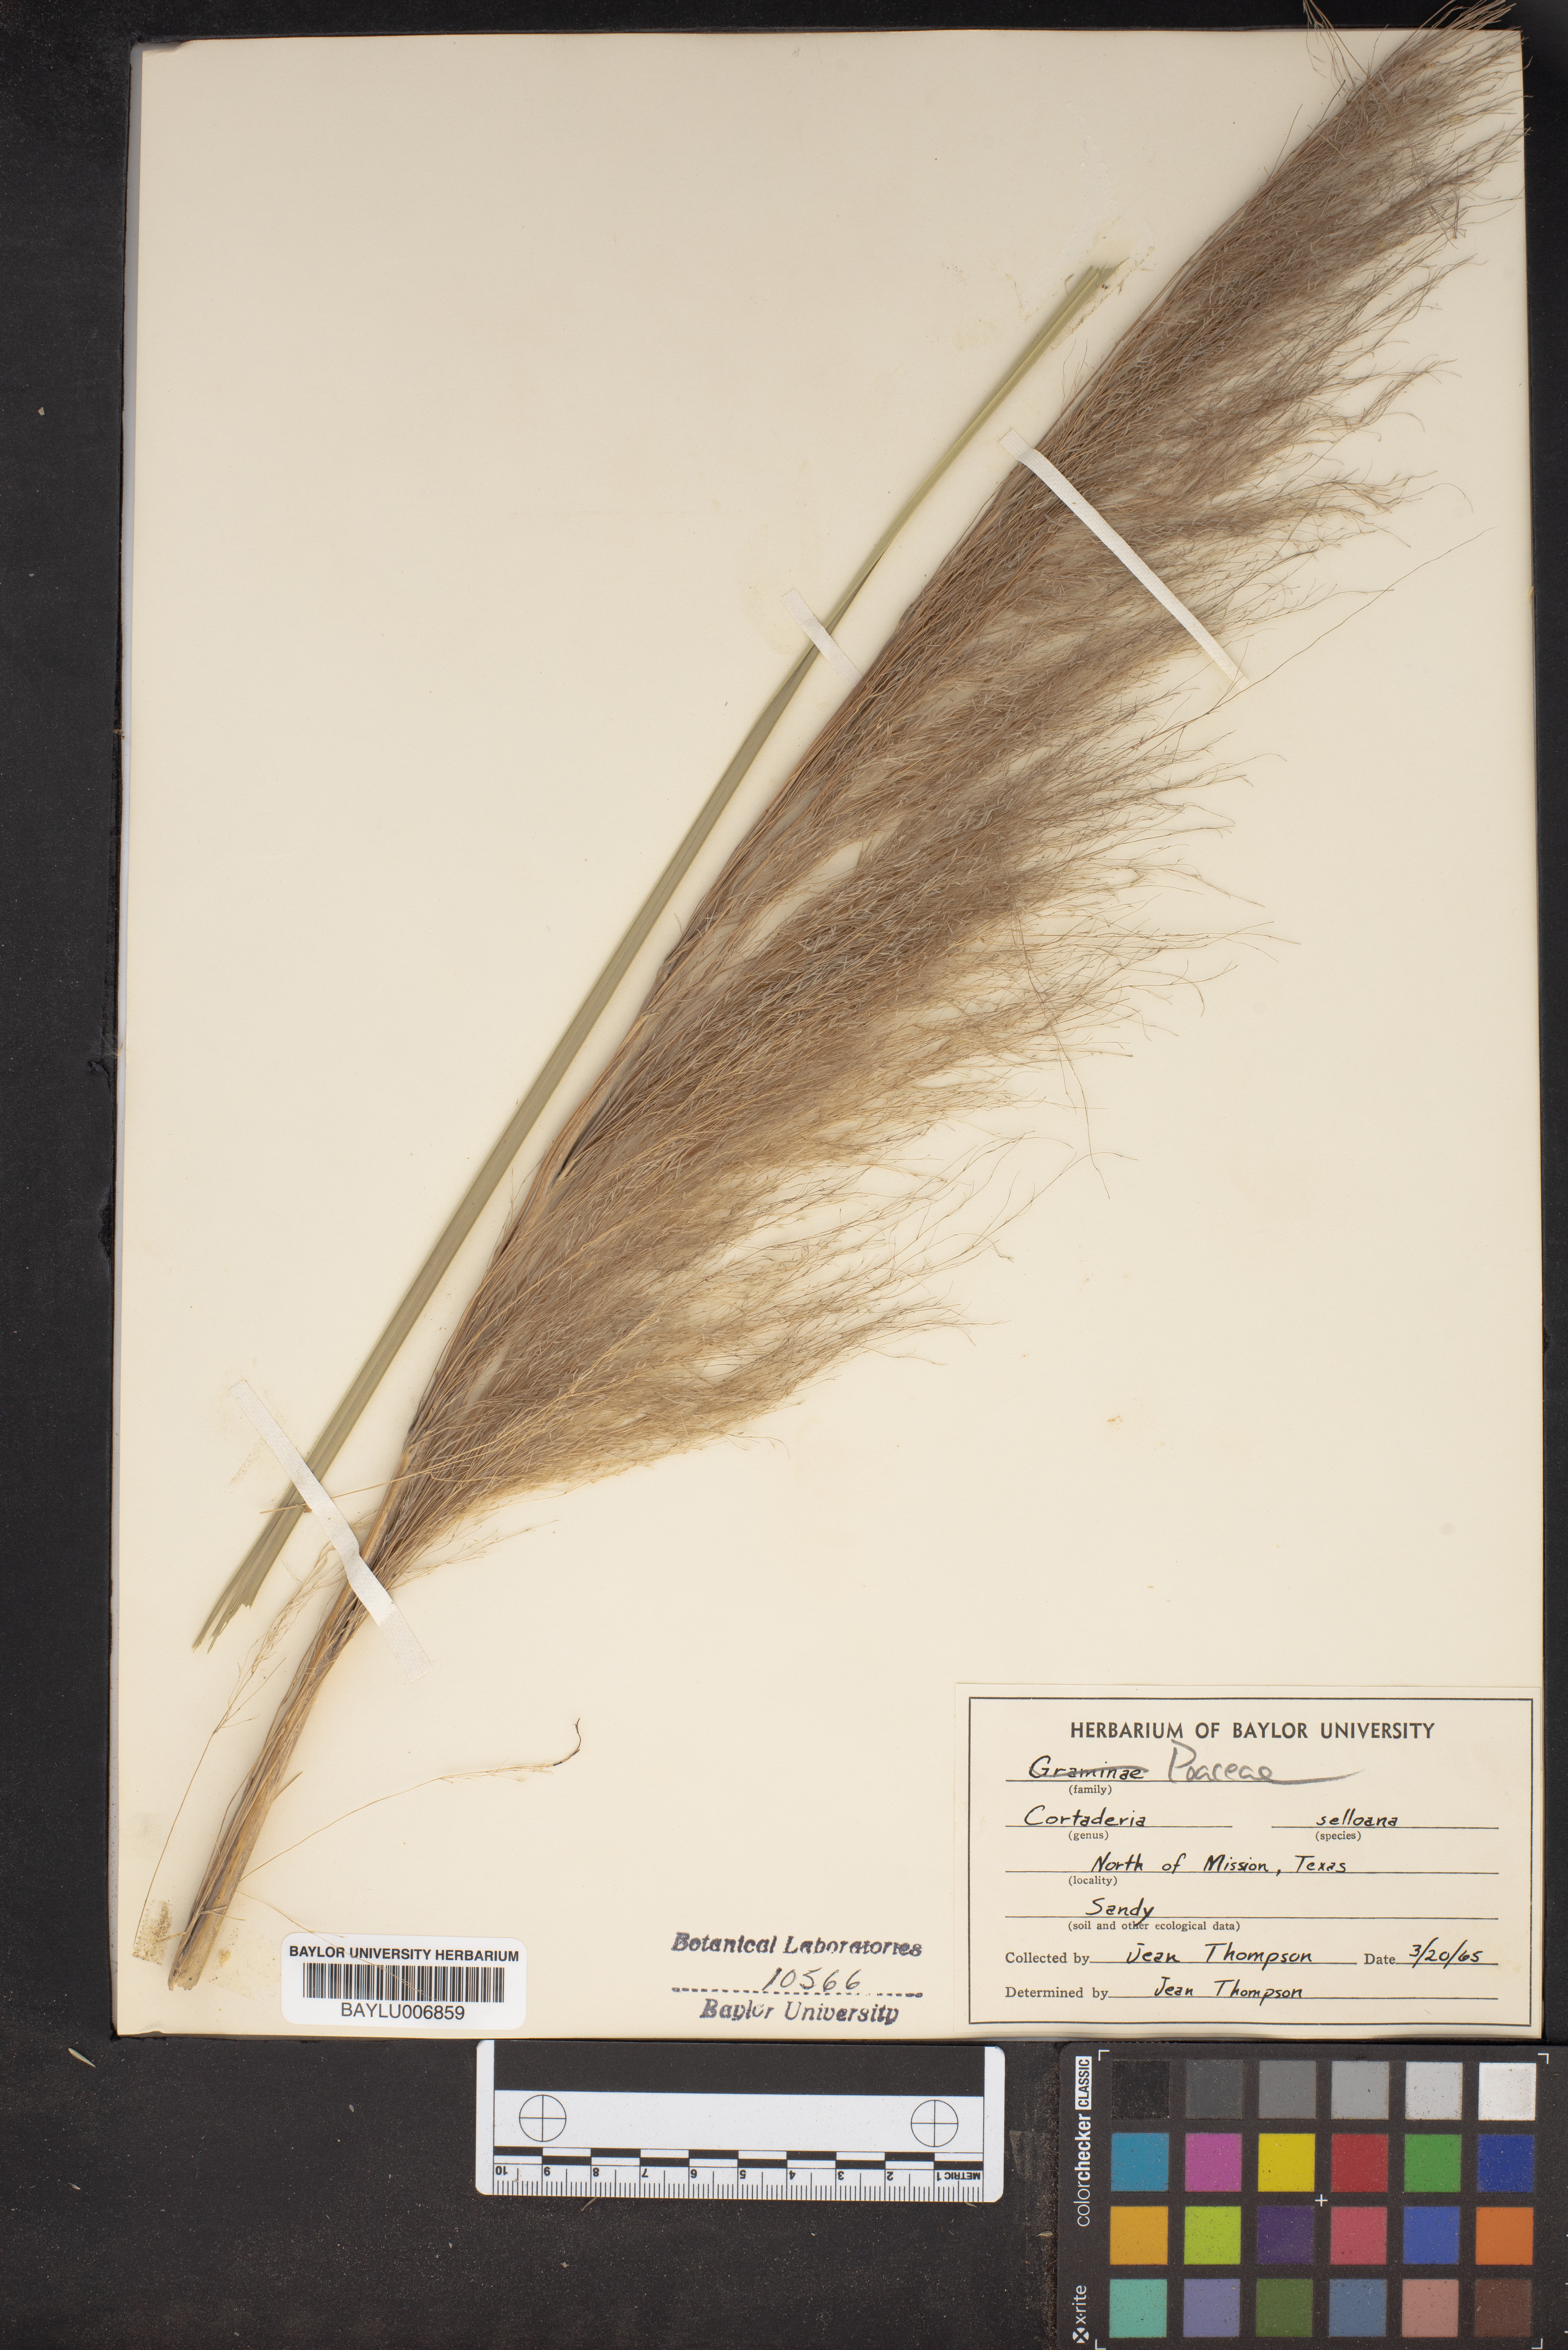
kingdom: Plantae
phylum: Tracheophyta
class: Liliopsida
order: Poales
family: Poaceae
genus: Cortaderia
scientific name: Cortaderia selloana
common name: Uruguayan pampas grass
